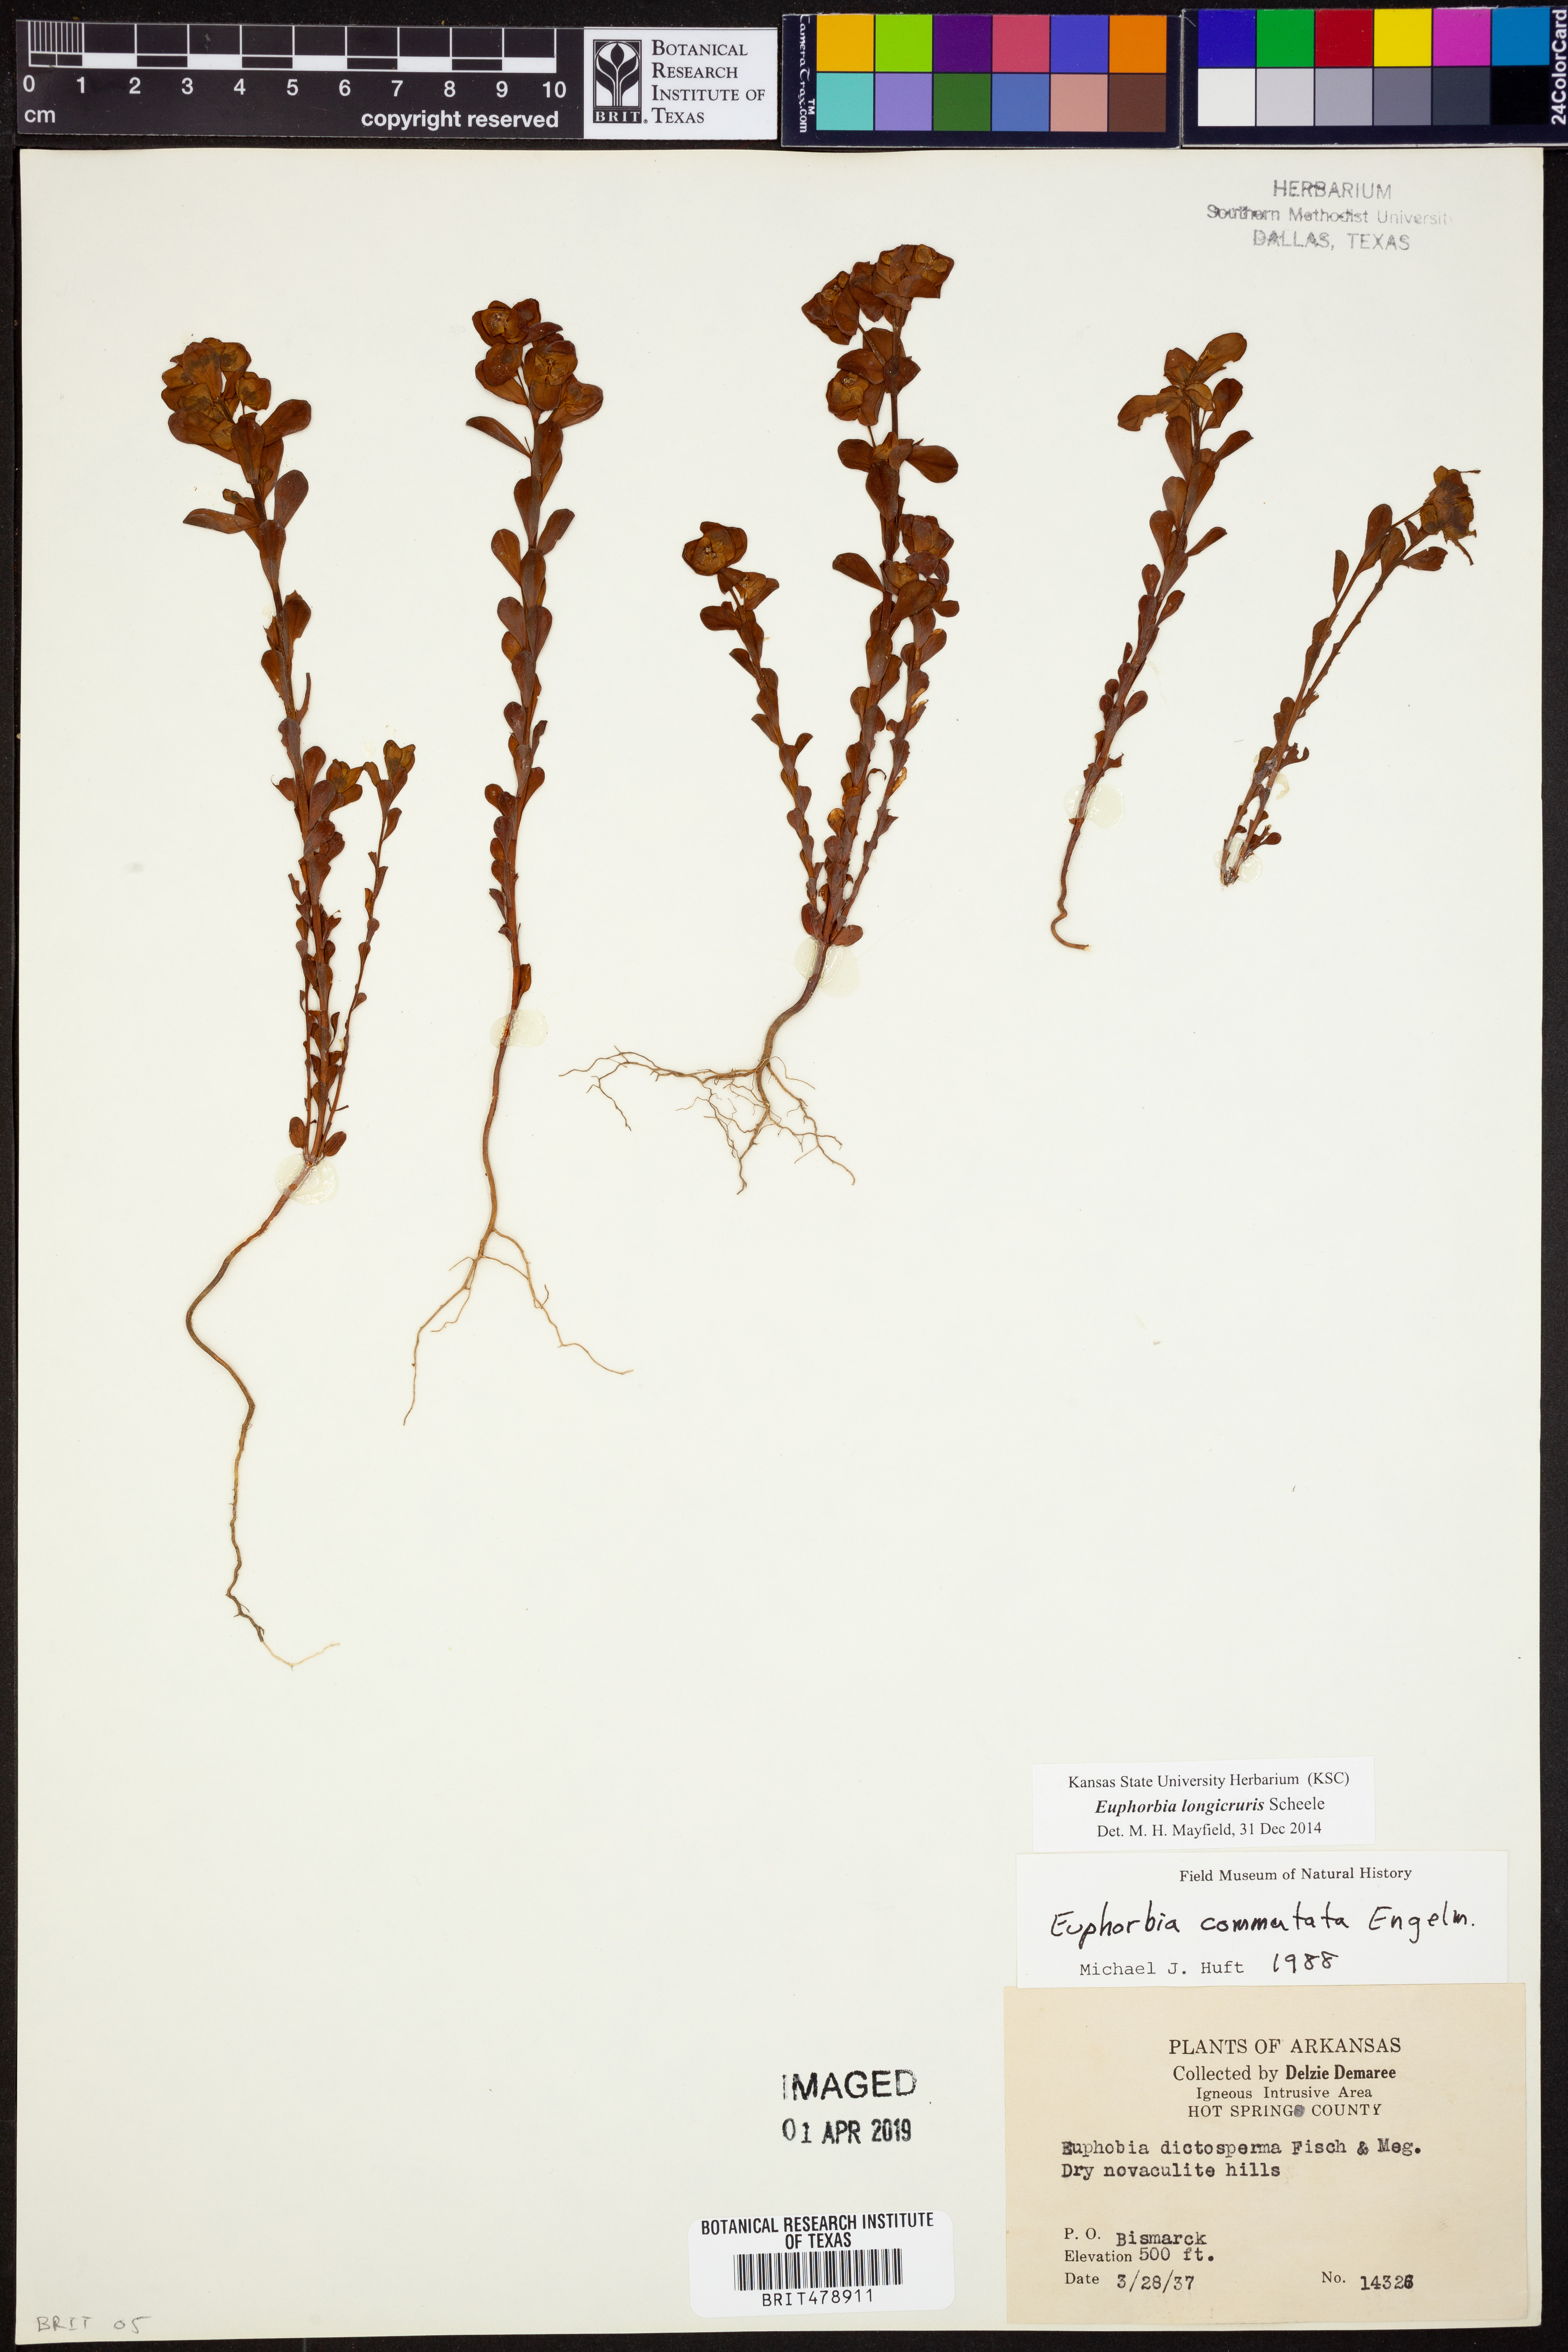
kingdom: Plantae
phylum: Tracheophyta
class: Magnoliopsida
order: Malpighiales
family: Euphorbiaceae
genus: Euphorbia
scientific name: Euphorbia longicruris
